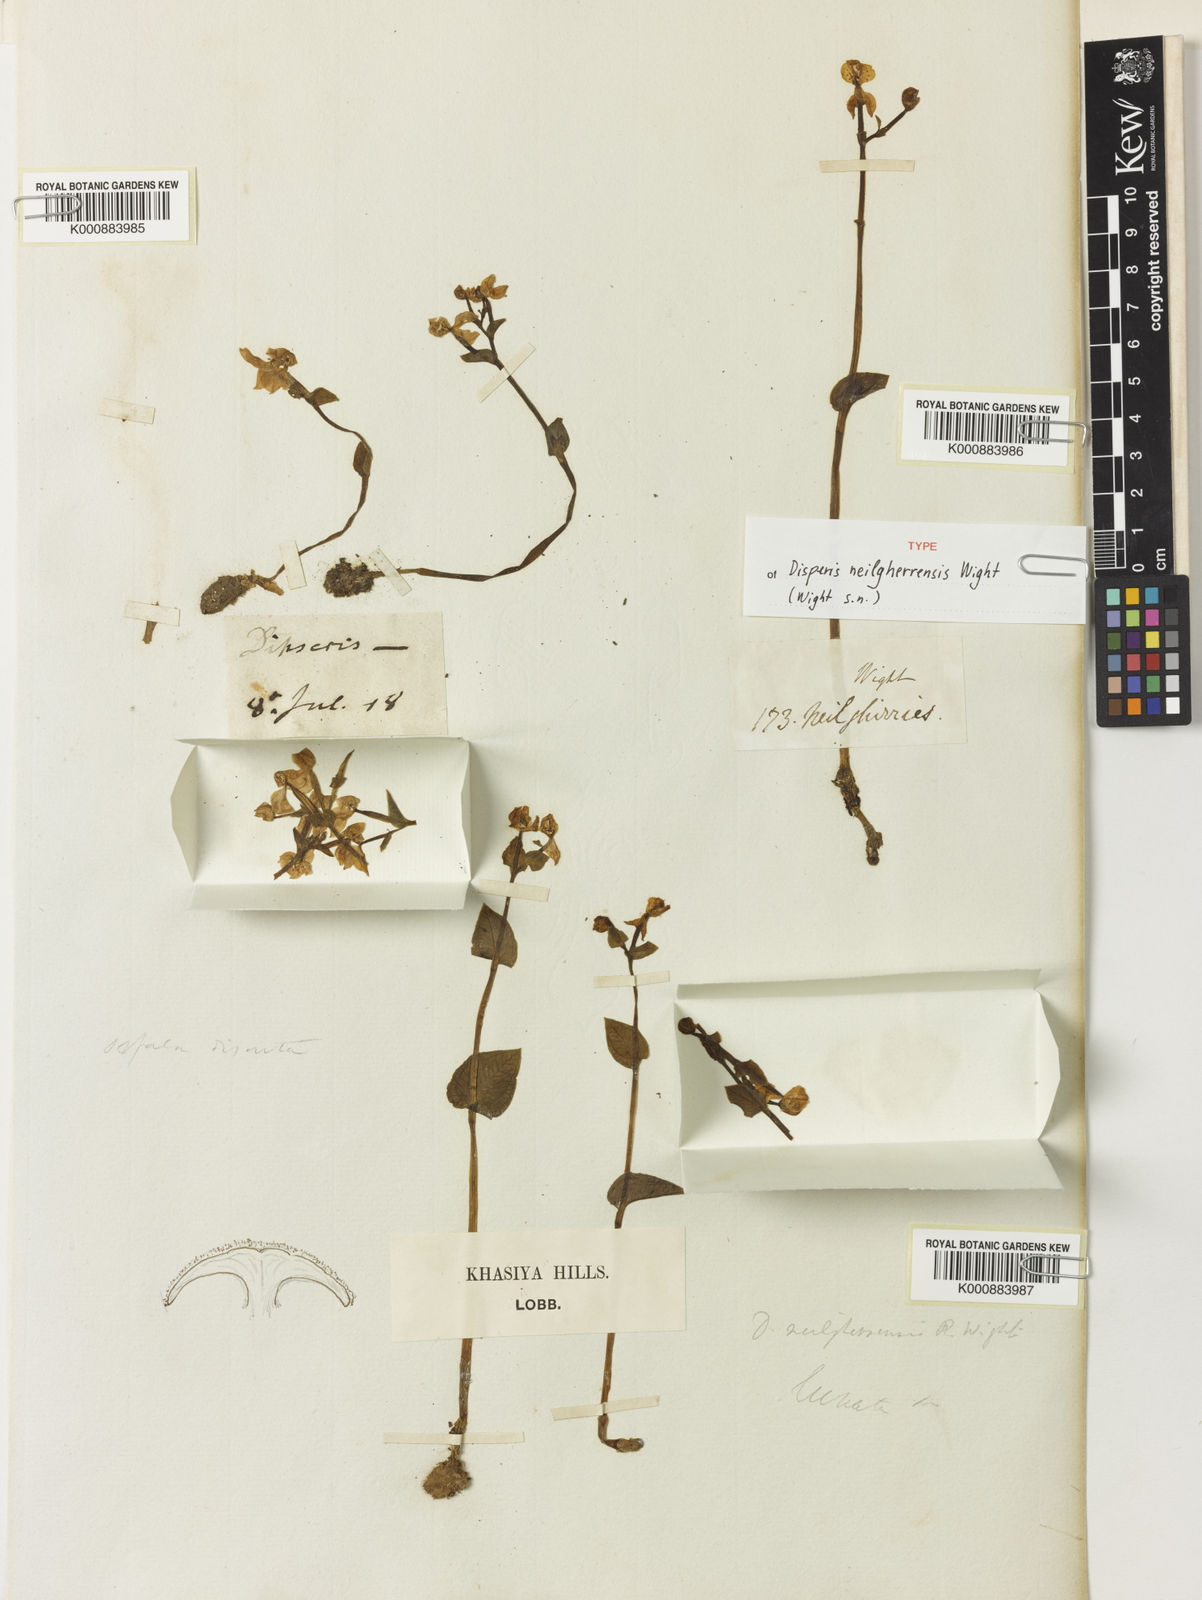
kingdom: Plantae
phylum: Tracheophyta
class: Liliopsida
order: Asparagales
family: Orchidaceae
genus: Disperis
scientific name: Disperis neilgherrensis
